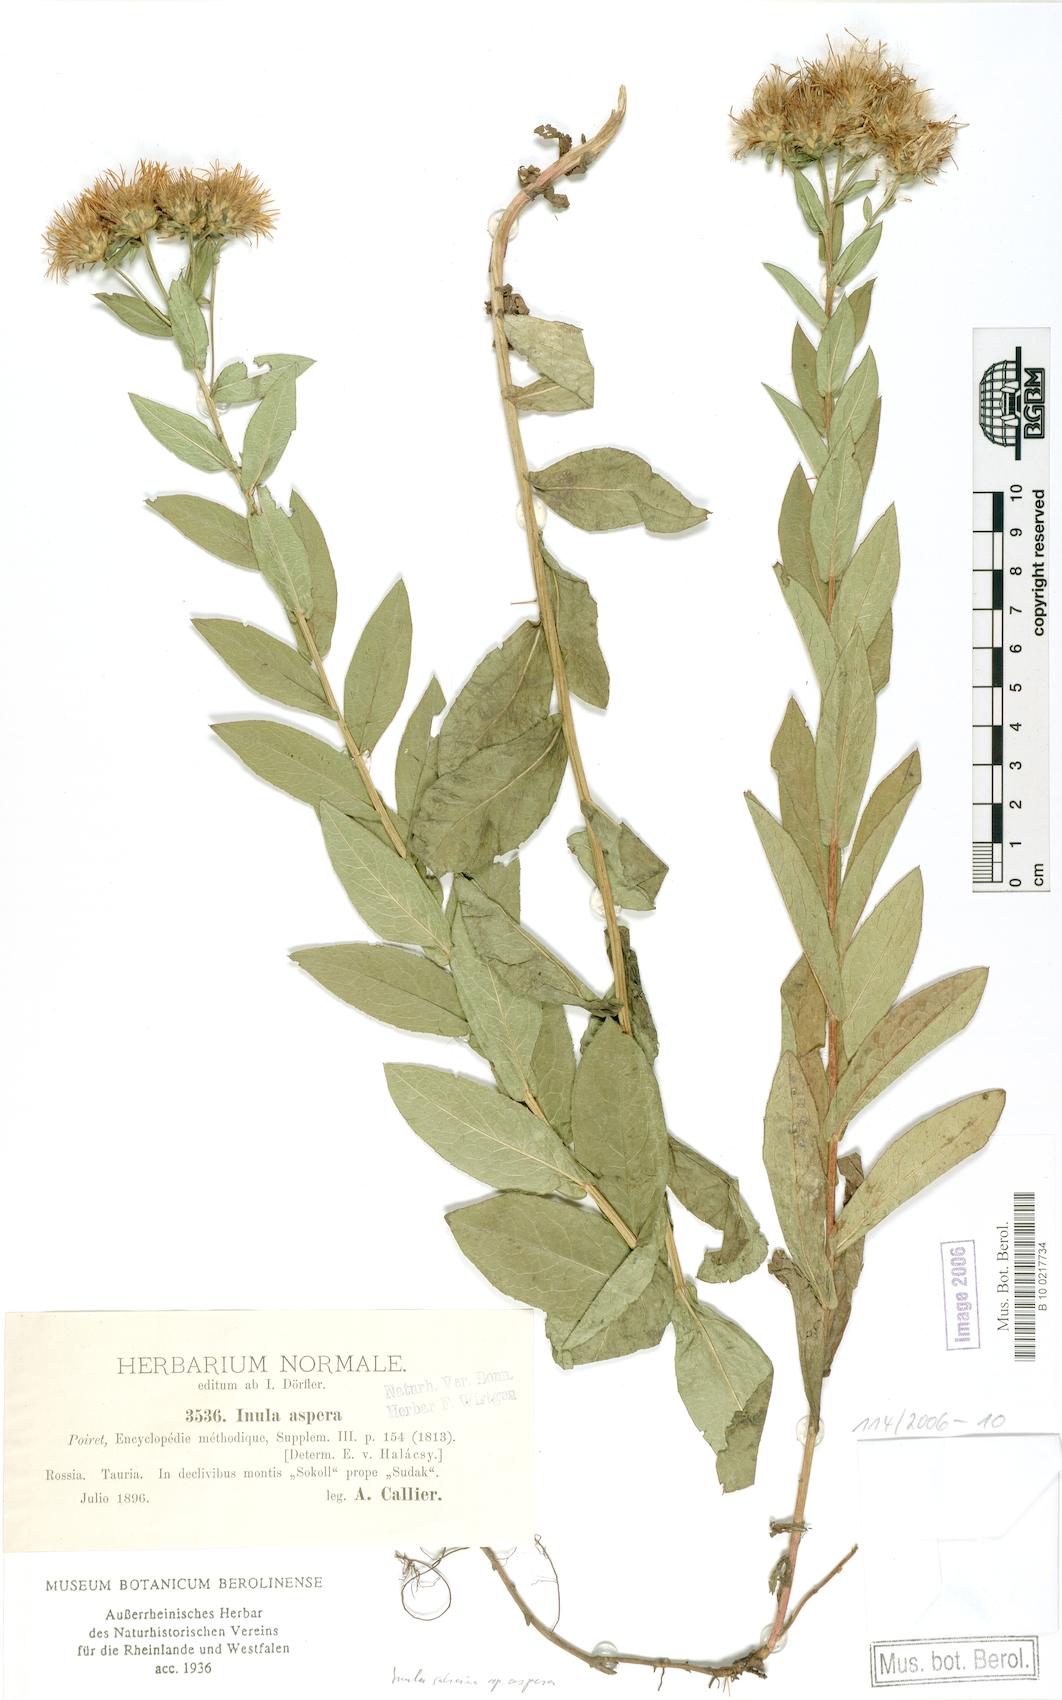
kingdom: Plantae
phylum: Tracheophyta
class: Magnoliopsida
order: Asterales
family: Asteraceae
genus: Pentanema
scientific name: Pentanema salicinum
